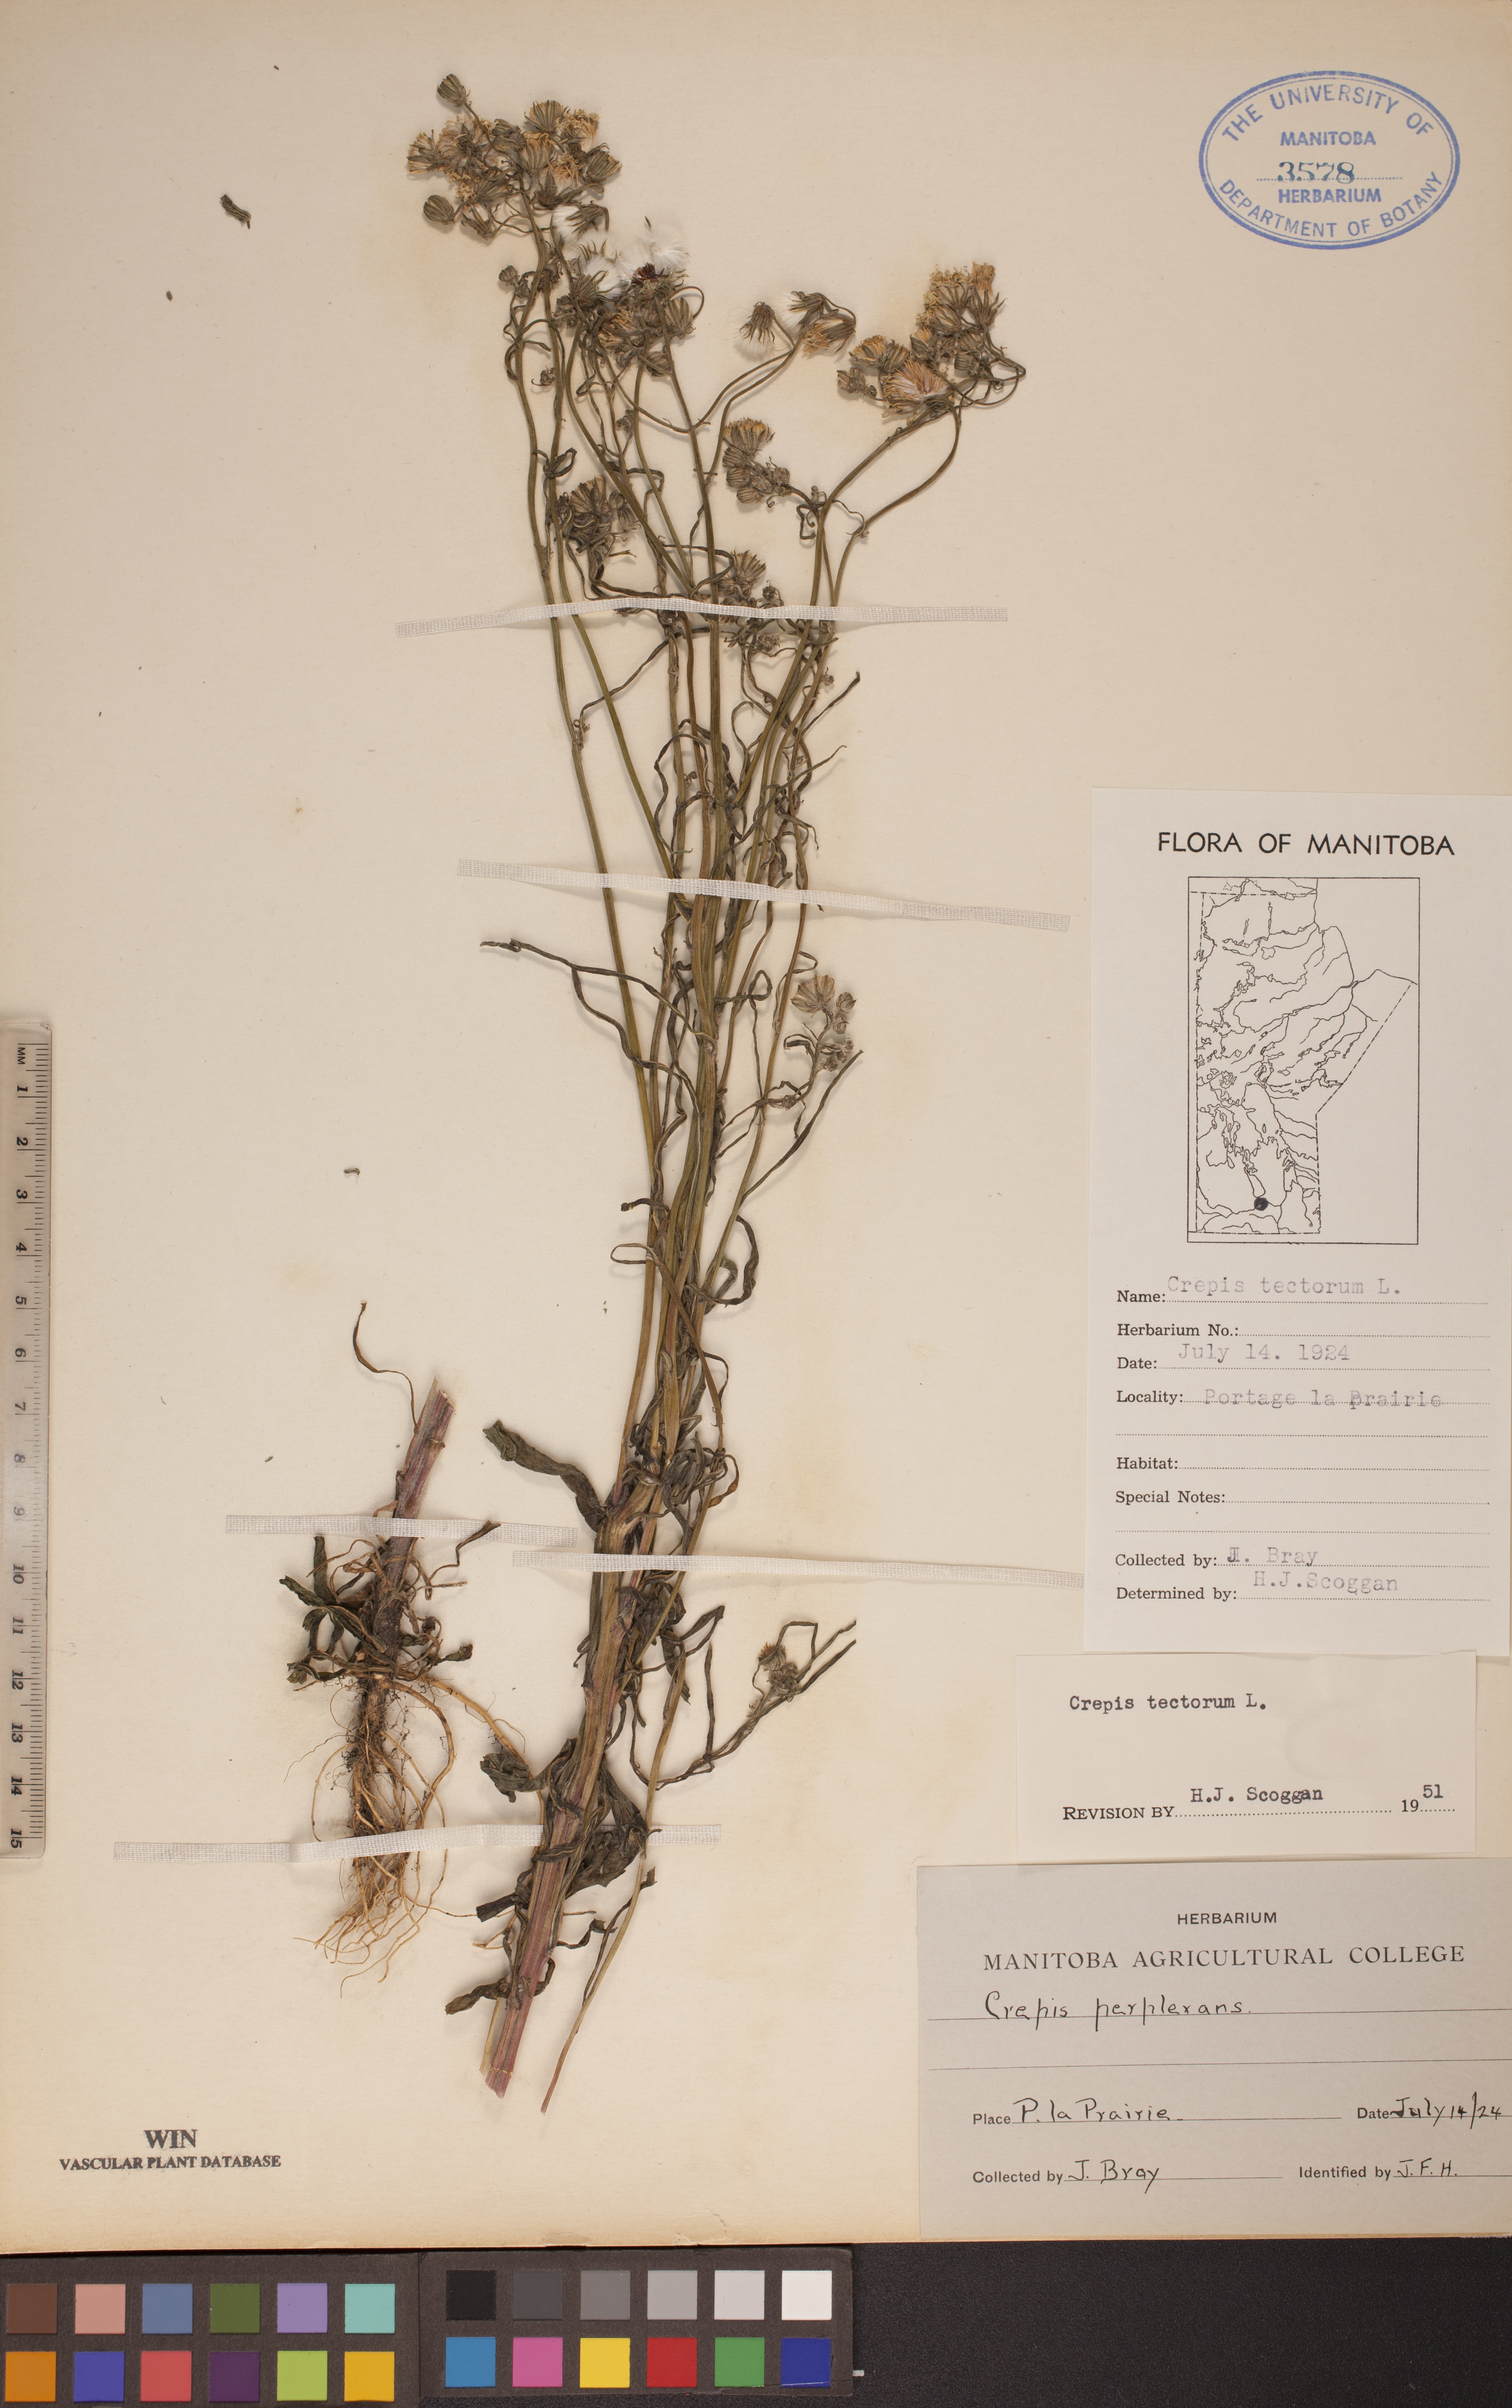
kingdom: Plantae
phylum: Tracheophyta
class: Magnoliopsida
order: Asterales
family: Asteraceae
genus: Crepis
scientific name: Crepis tectorum
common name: Narrow-leaved hawk's-beard
